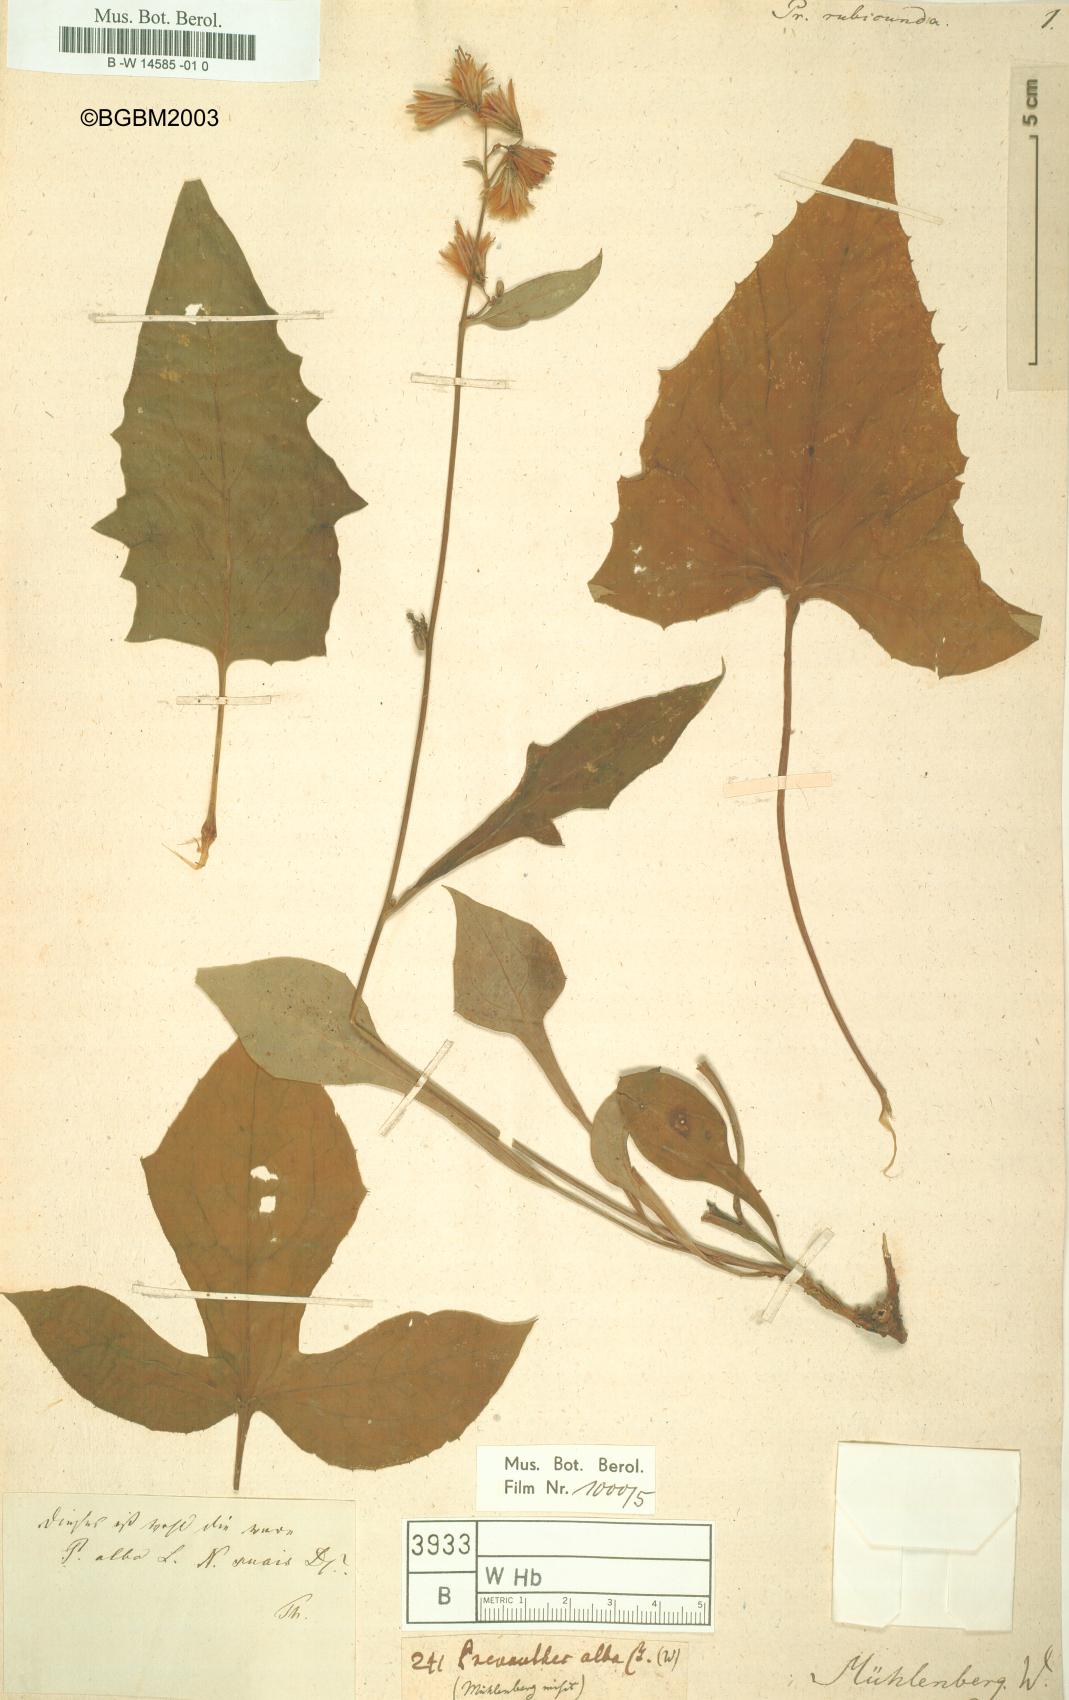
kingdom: Plantae
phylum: Tracheophyta
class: Magnoliopsida
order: Asterales
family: Asteraceae
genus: Nabalus
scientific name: Nabalus albus
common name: White rattlesnakeroot
